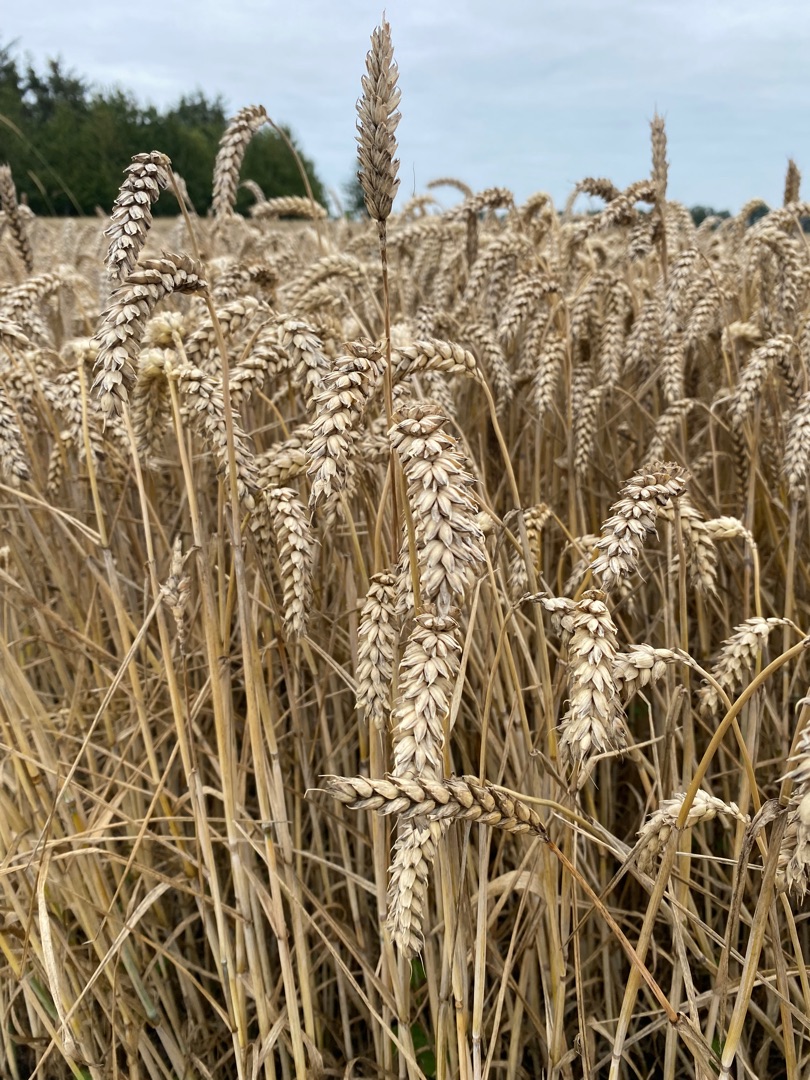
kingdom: Plantae
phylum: Tracheophyta
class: Liliopsida
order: Poales
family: Poaceae
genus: Triticum
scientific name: Triticum aestivum
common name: Almindelig hvede
